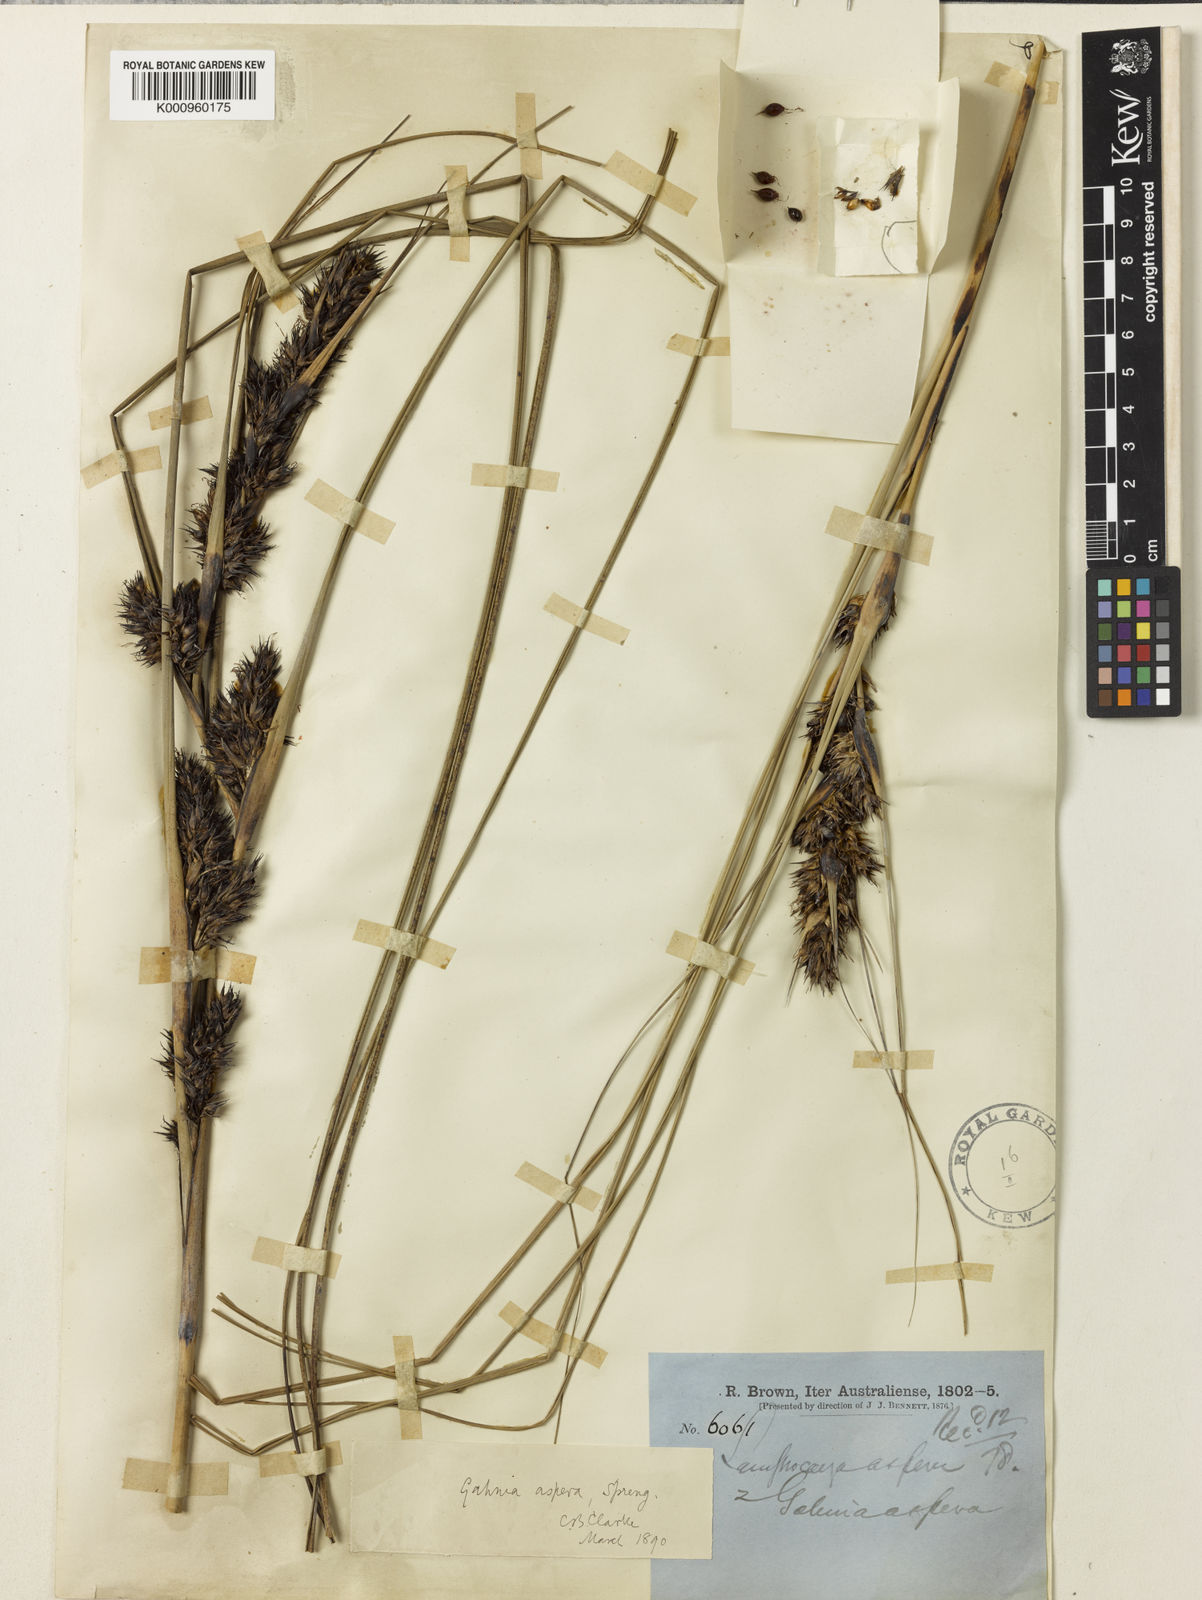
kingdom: Plantae
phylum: Tracheophyta
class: Liliopsida
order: Poales
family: Cyperaceae
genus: Gahnia
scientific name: Gahnia aspera
